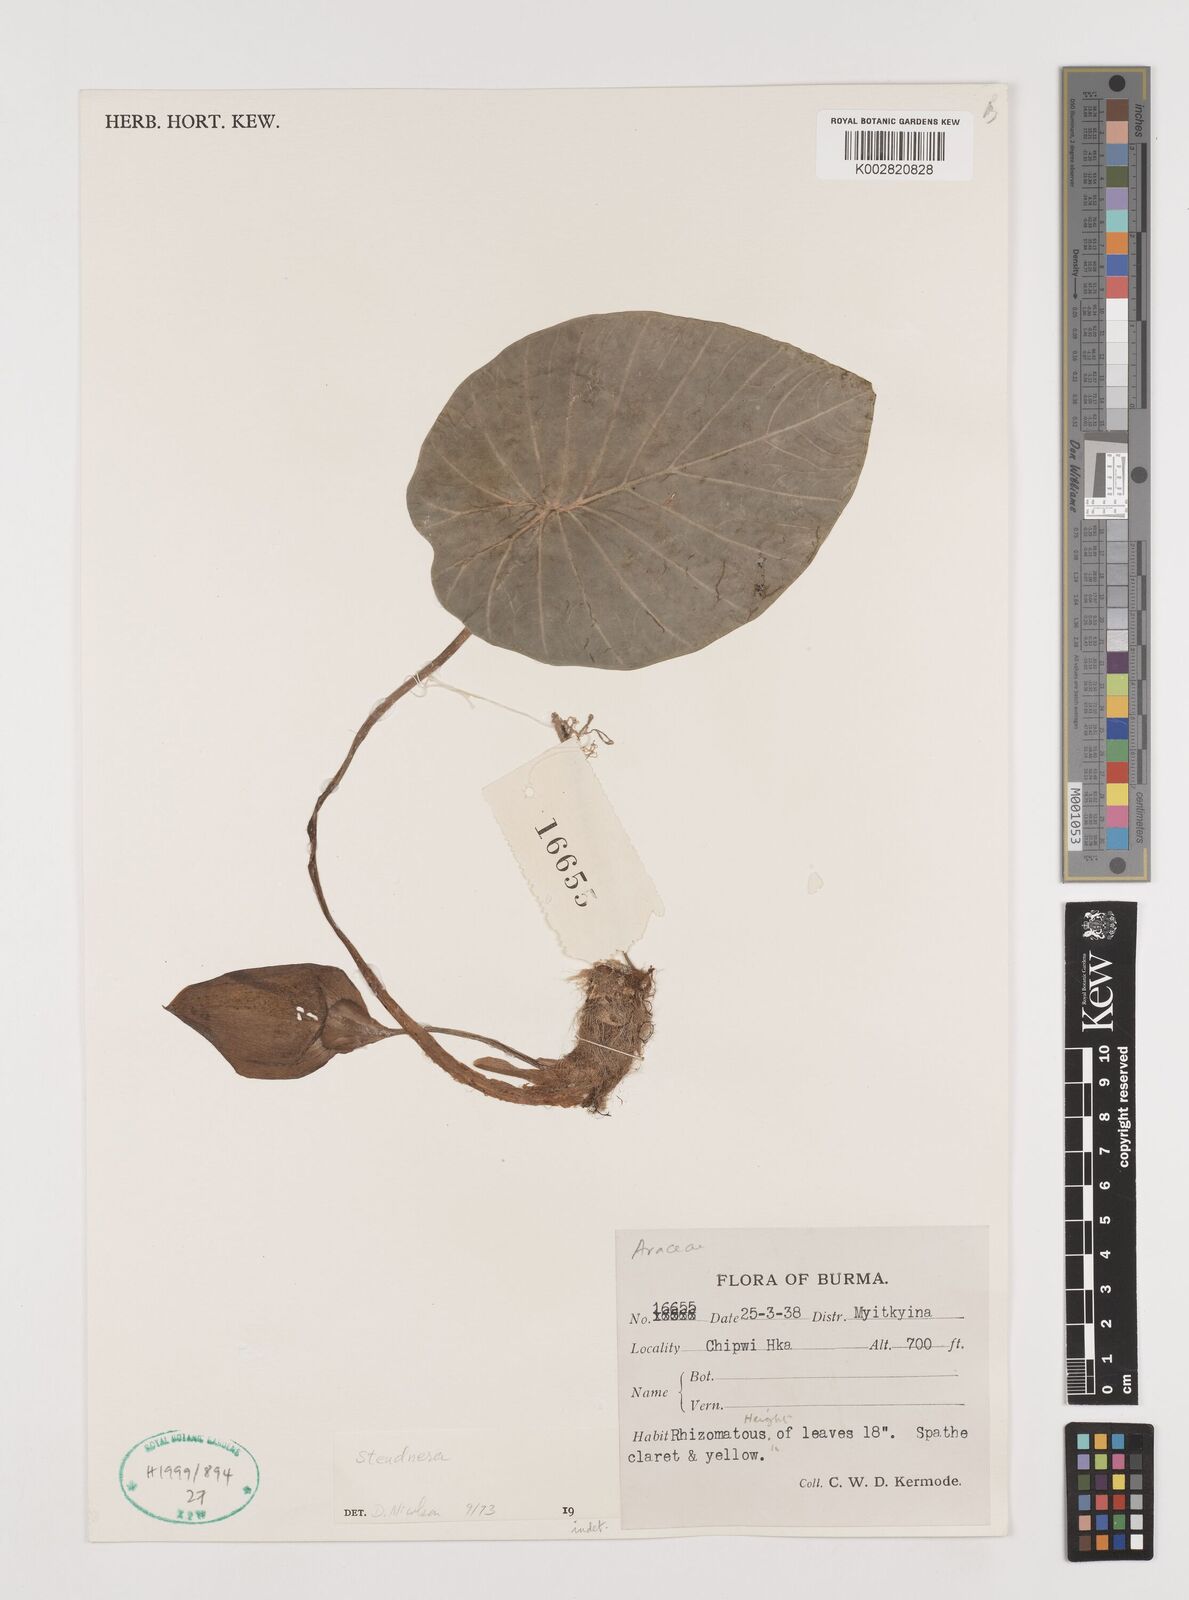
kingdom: Plantae
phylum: Tracheophyta
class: Liliopsida
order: Alismatales
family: Araceae
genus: Steudnera
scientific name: Steudnera colocasiifolia
